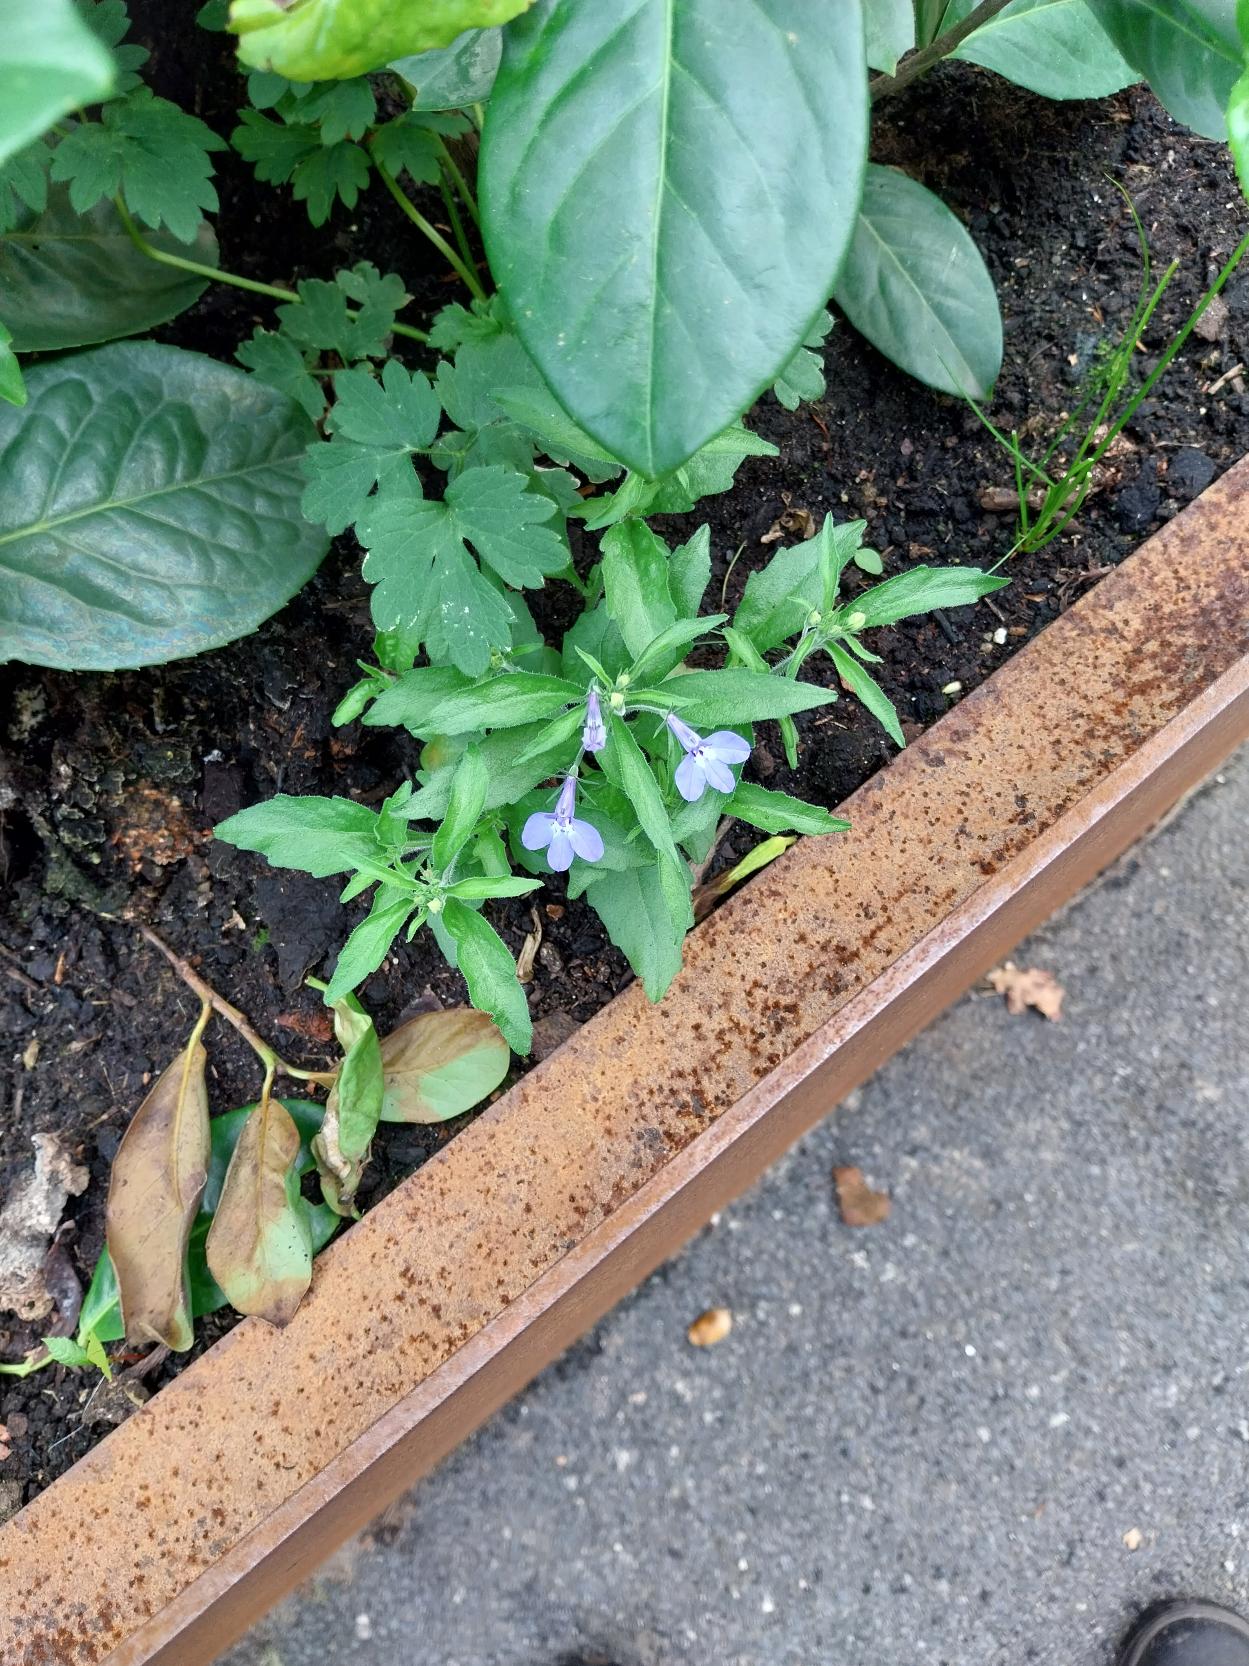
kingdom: Plantae
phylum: Tracheophyta
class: Magnoliopsida
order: Asterales
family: Campanulaceae
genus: Lobelia
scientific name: Lobelia erinus
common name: Kant-lobelie
